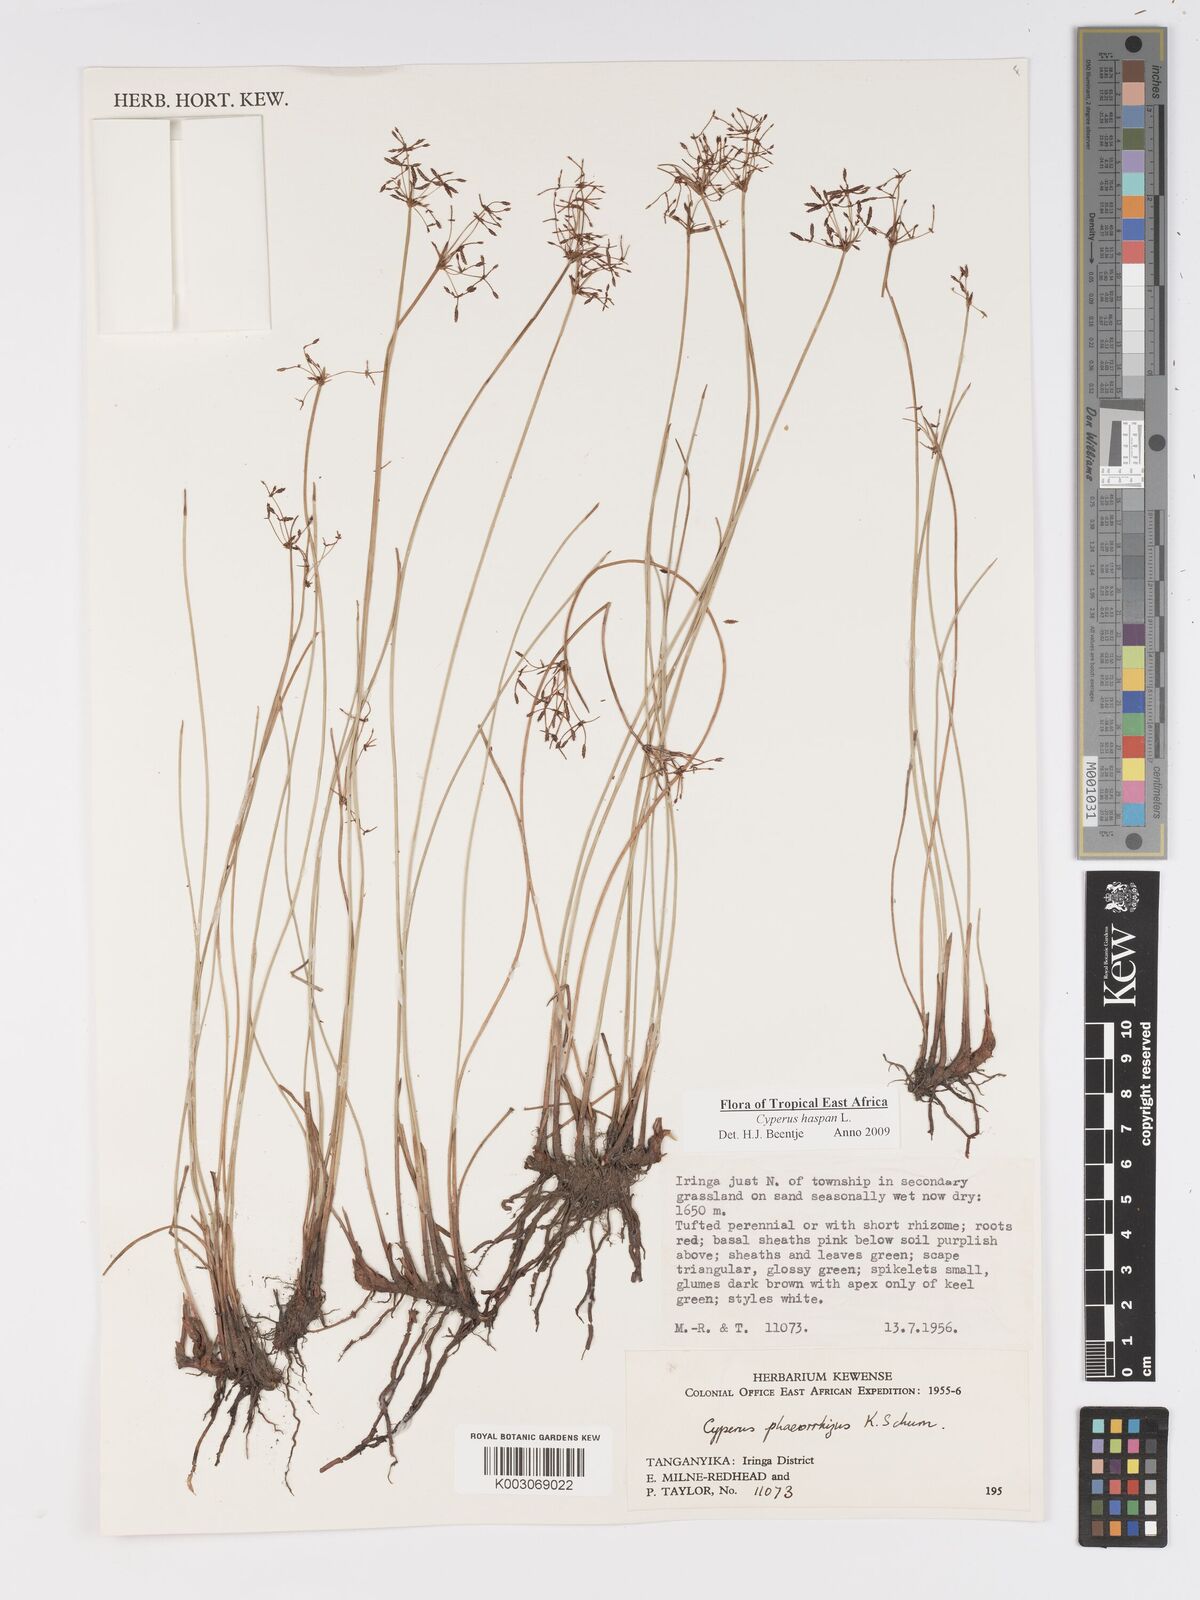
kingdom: Plantae
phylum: Tracheophyta
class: Liliopsida
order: Poales
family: Cyperaceae
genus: Cyperus
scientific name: Cyperus
